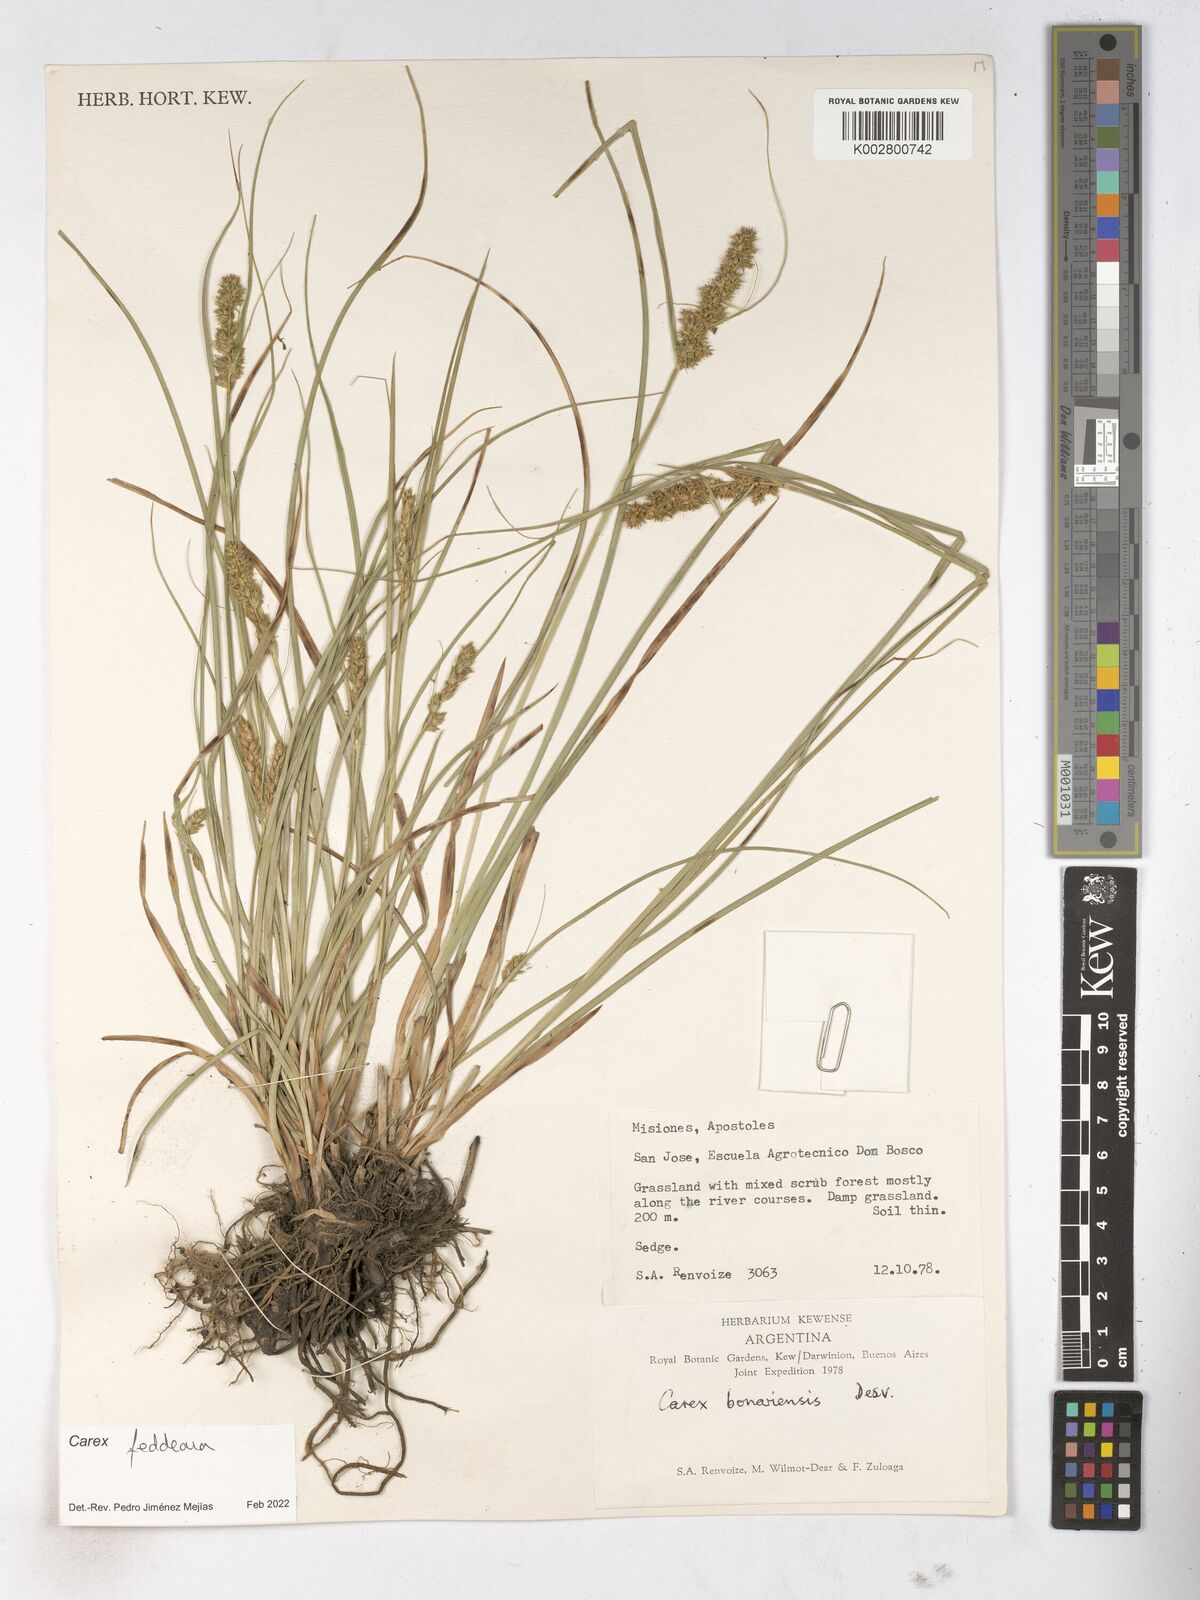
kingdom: Plantae
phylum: Tracheophyta
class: Liliopsida
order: Poales
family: Cyperaceae
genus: Carex
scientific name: Carex bonariensis
